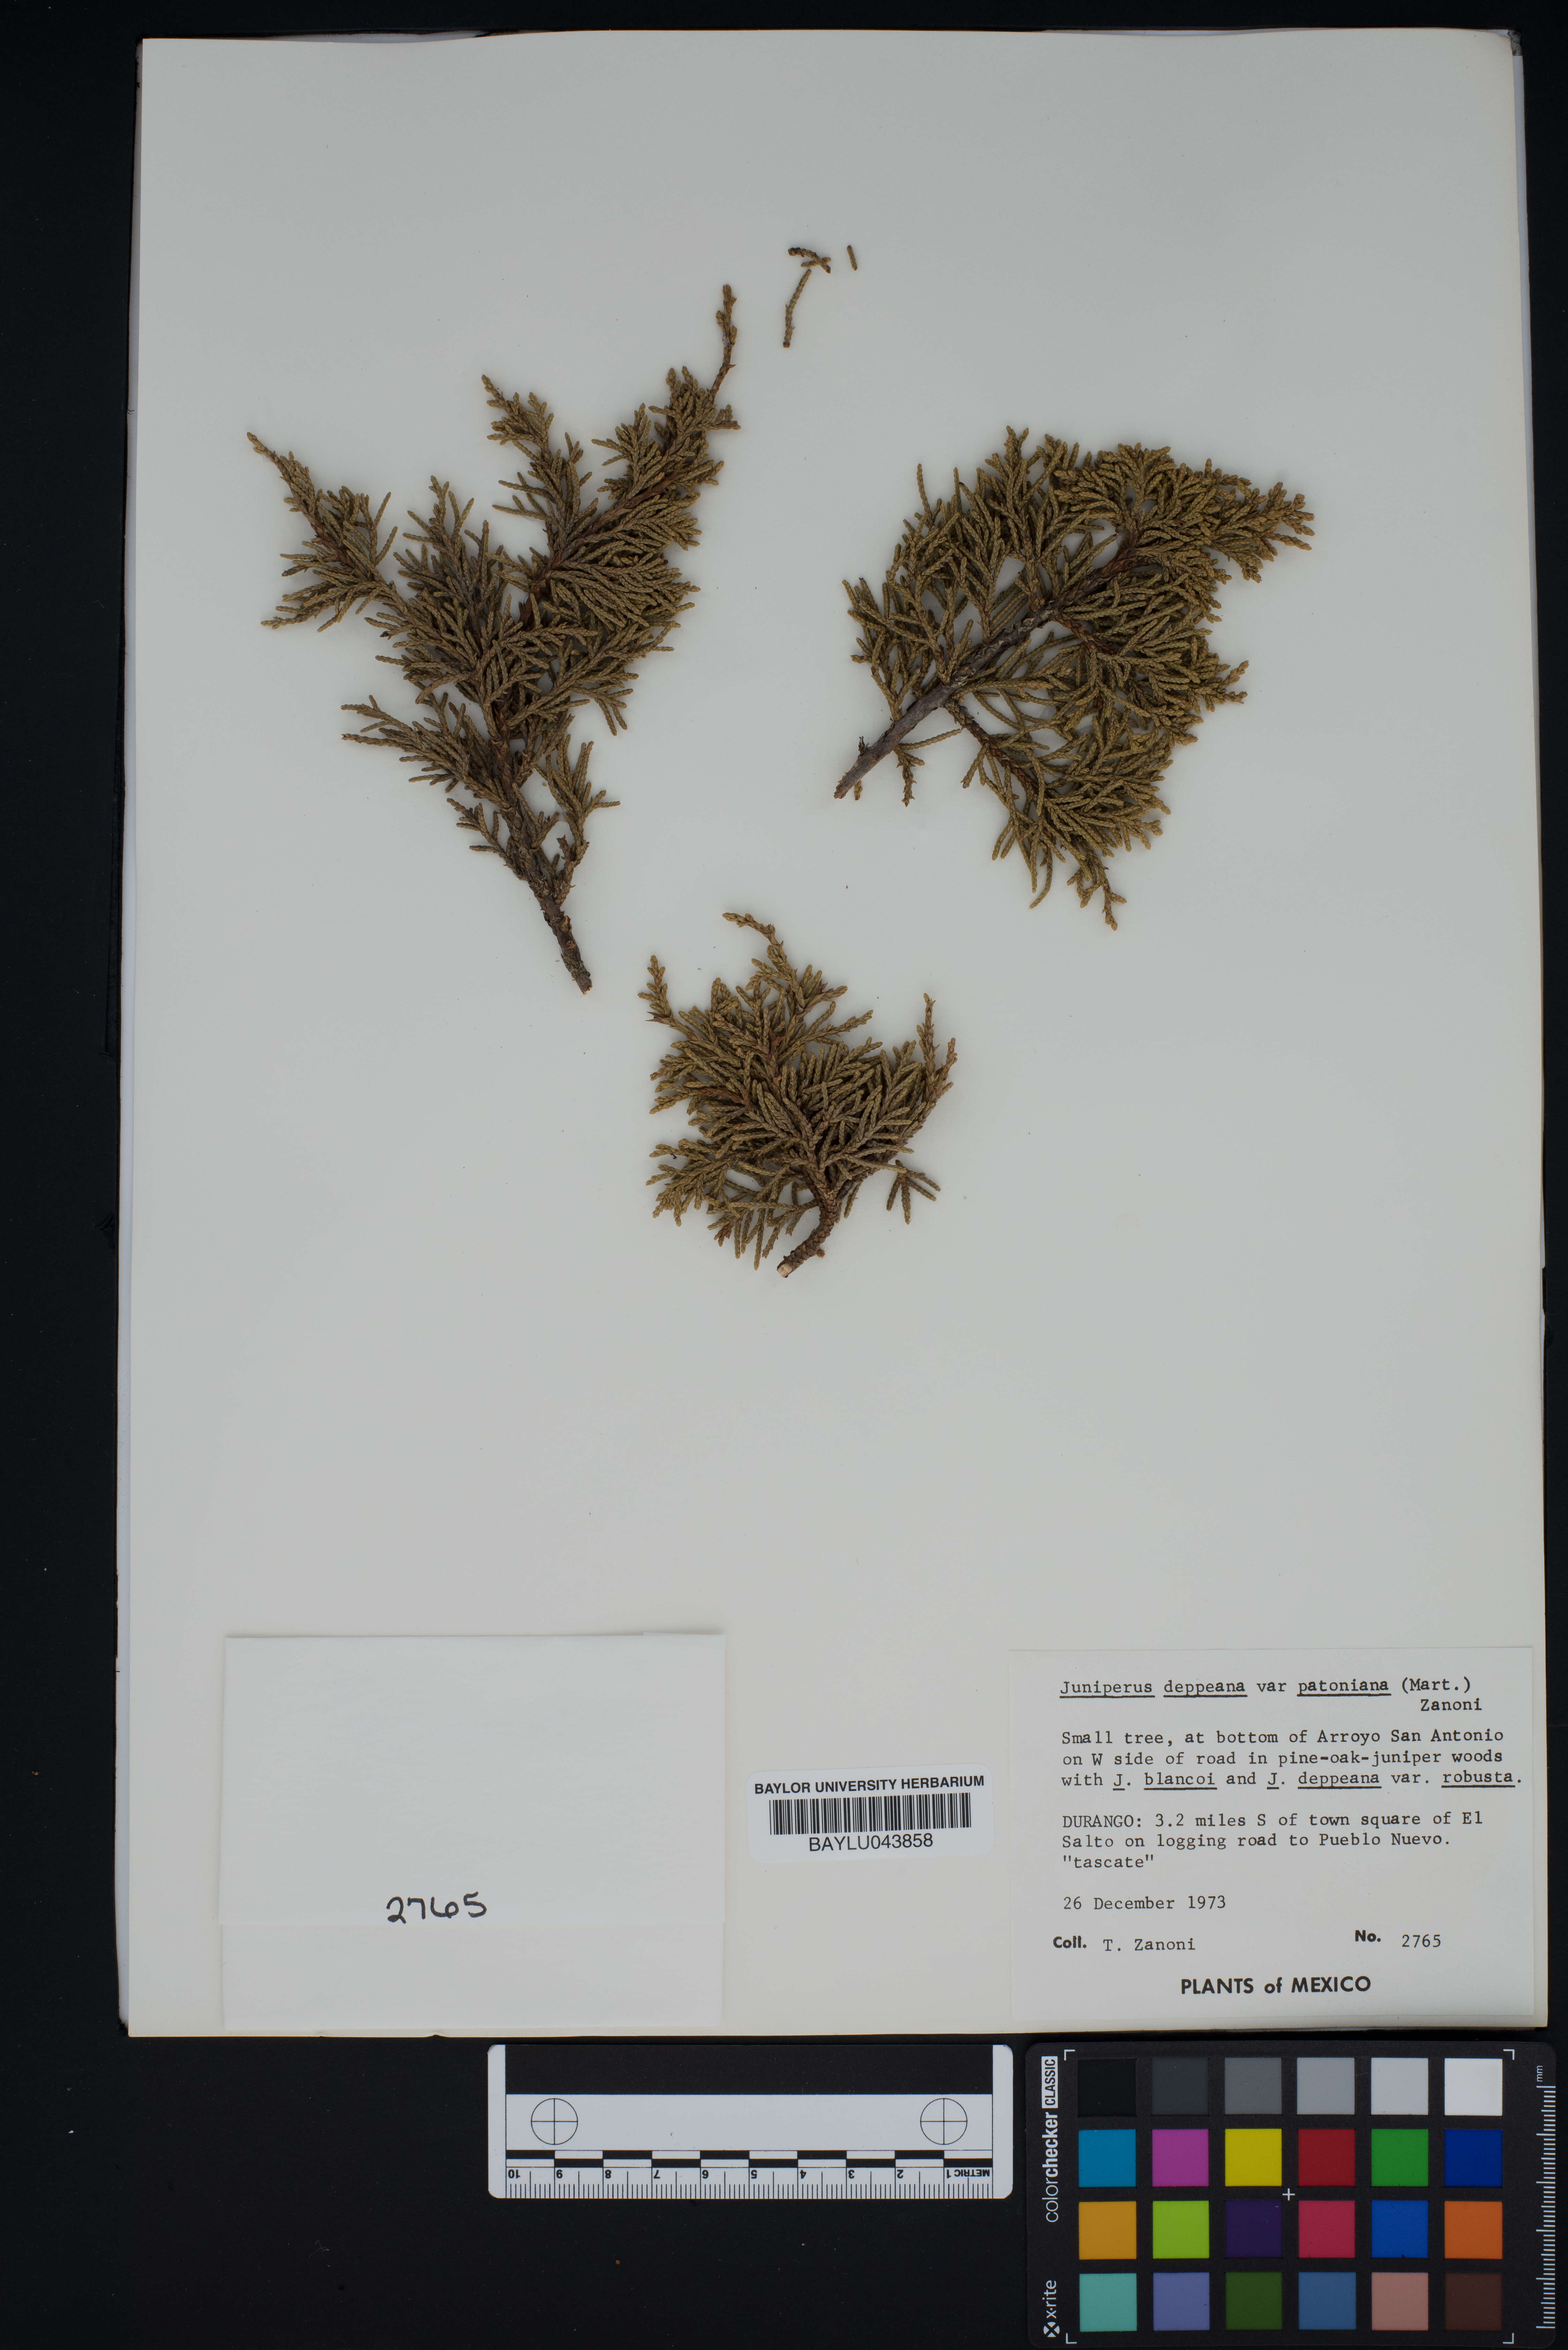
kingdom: Plantae
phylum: Tracheophyta
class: Pinopsida
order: Pinales
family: Cupressaceae
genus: Juniperus
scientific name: Juniperus deppeana
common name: Alligator juniper
